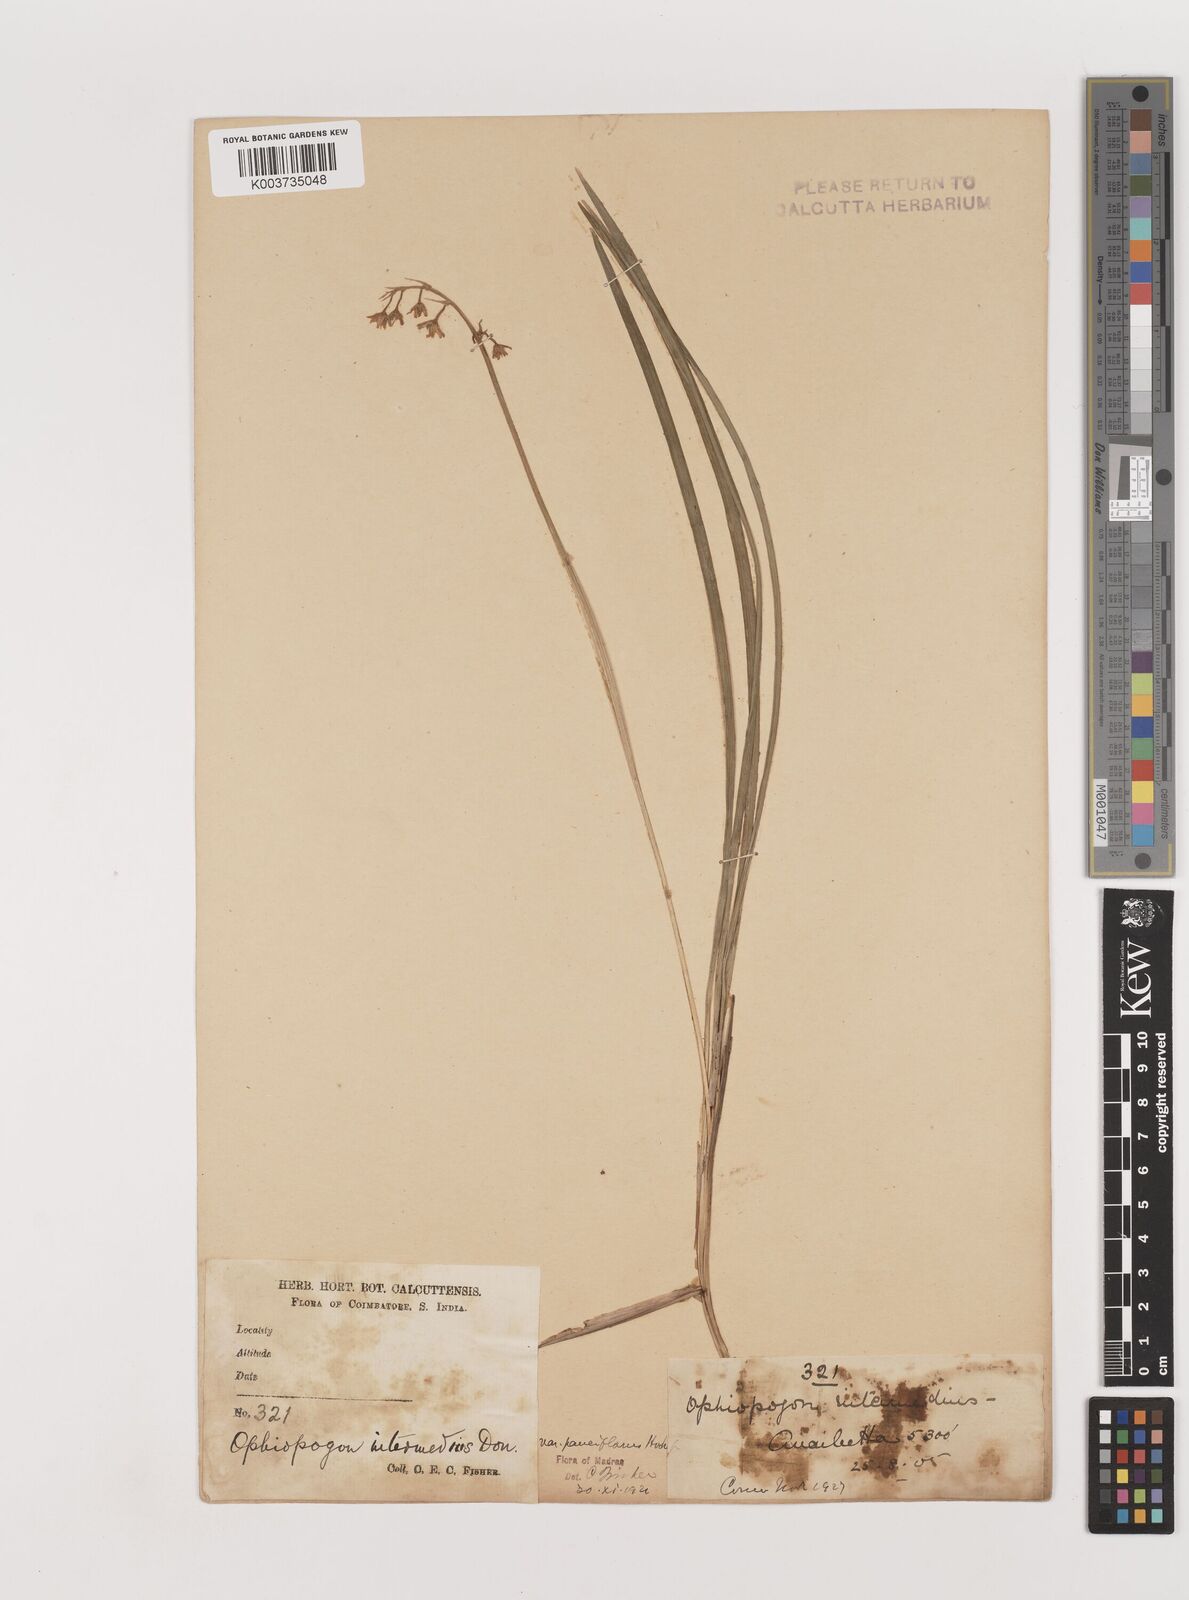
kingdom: Plantae
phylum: Tracheophyta
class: Liliopsida
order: Asparagales
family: Asparagaceae
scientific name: Asparagaceae
